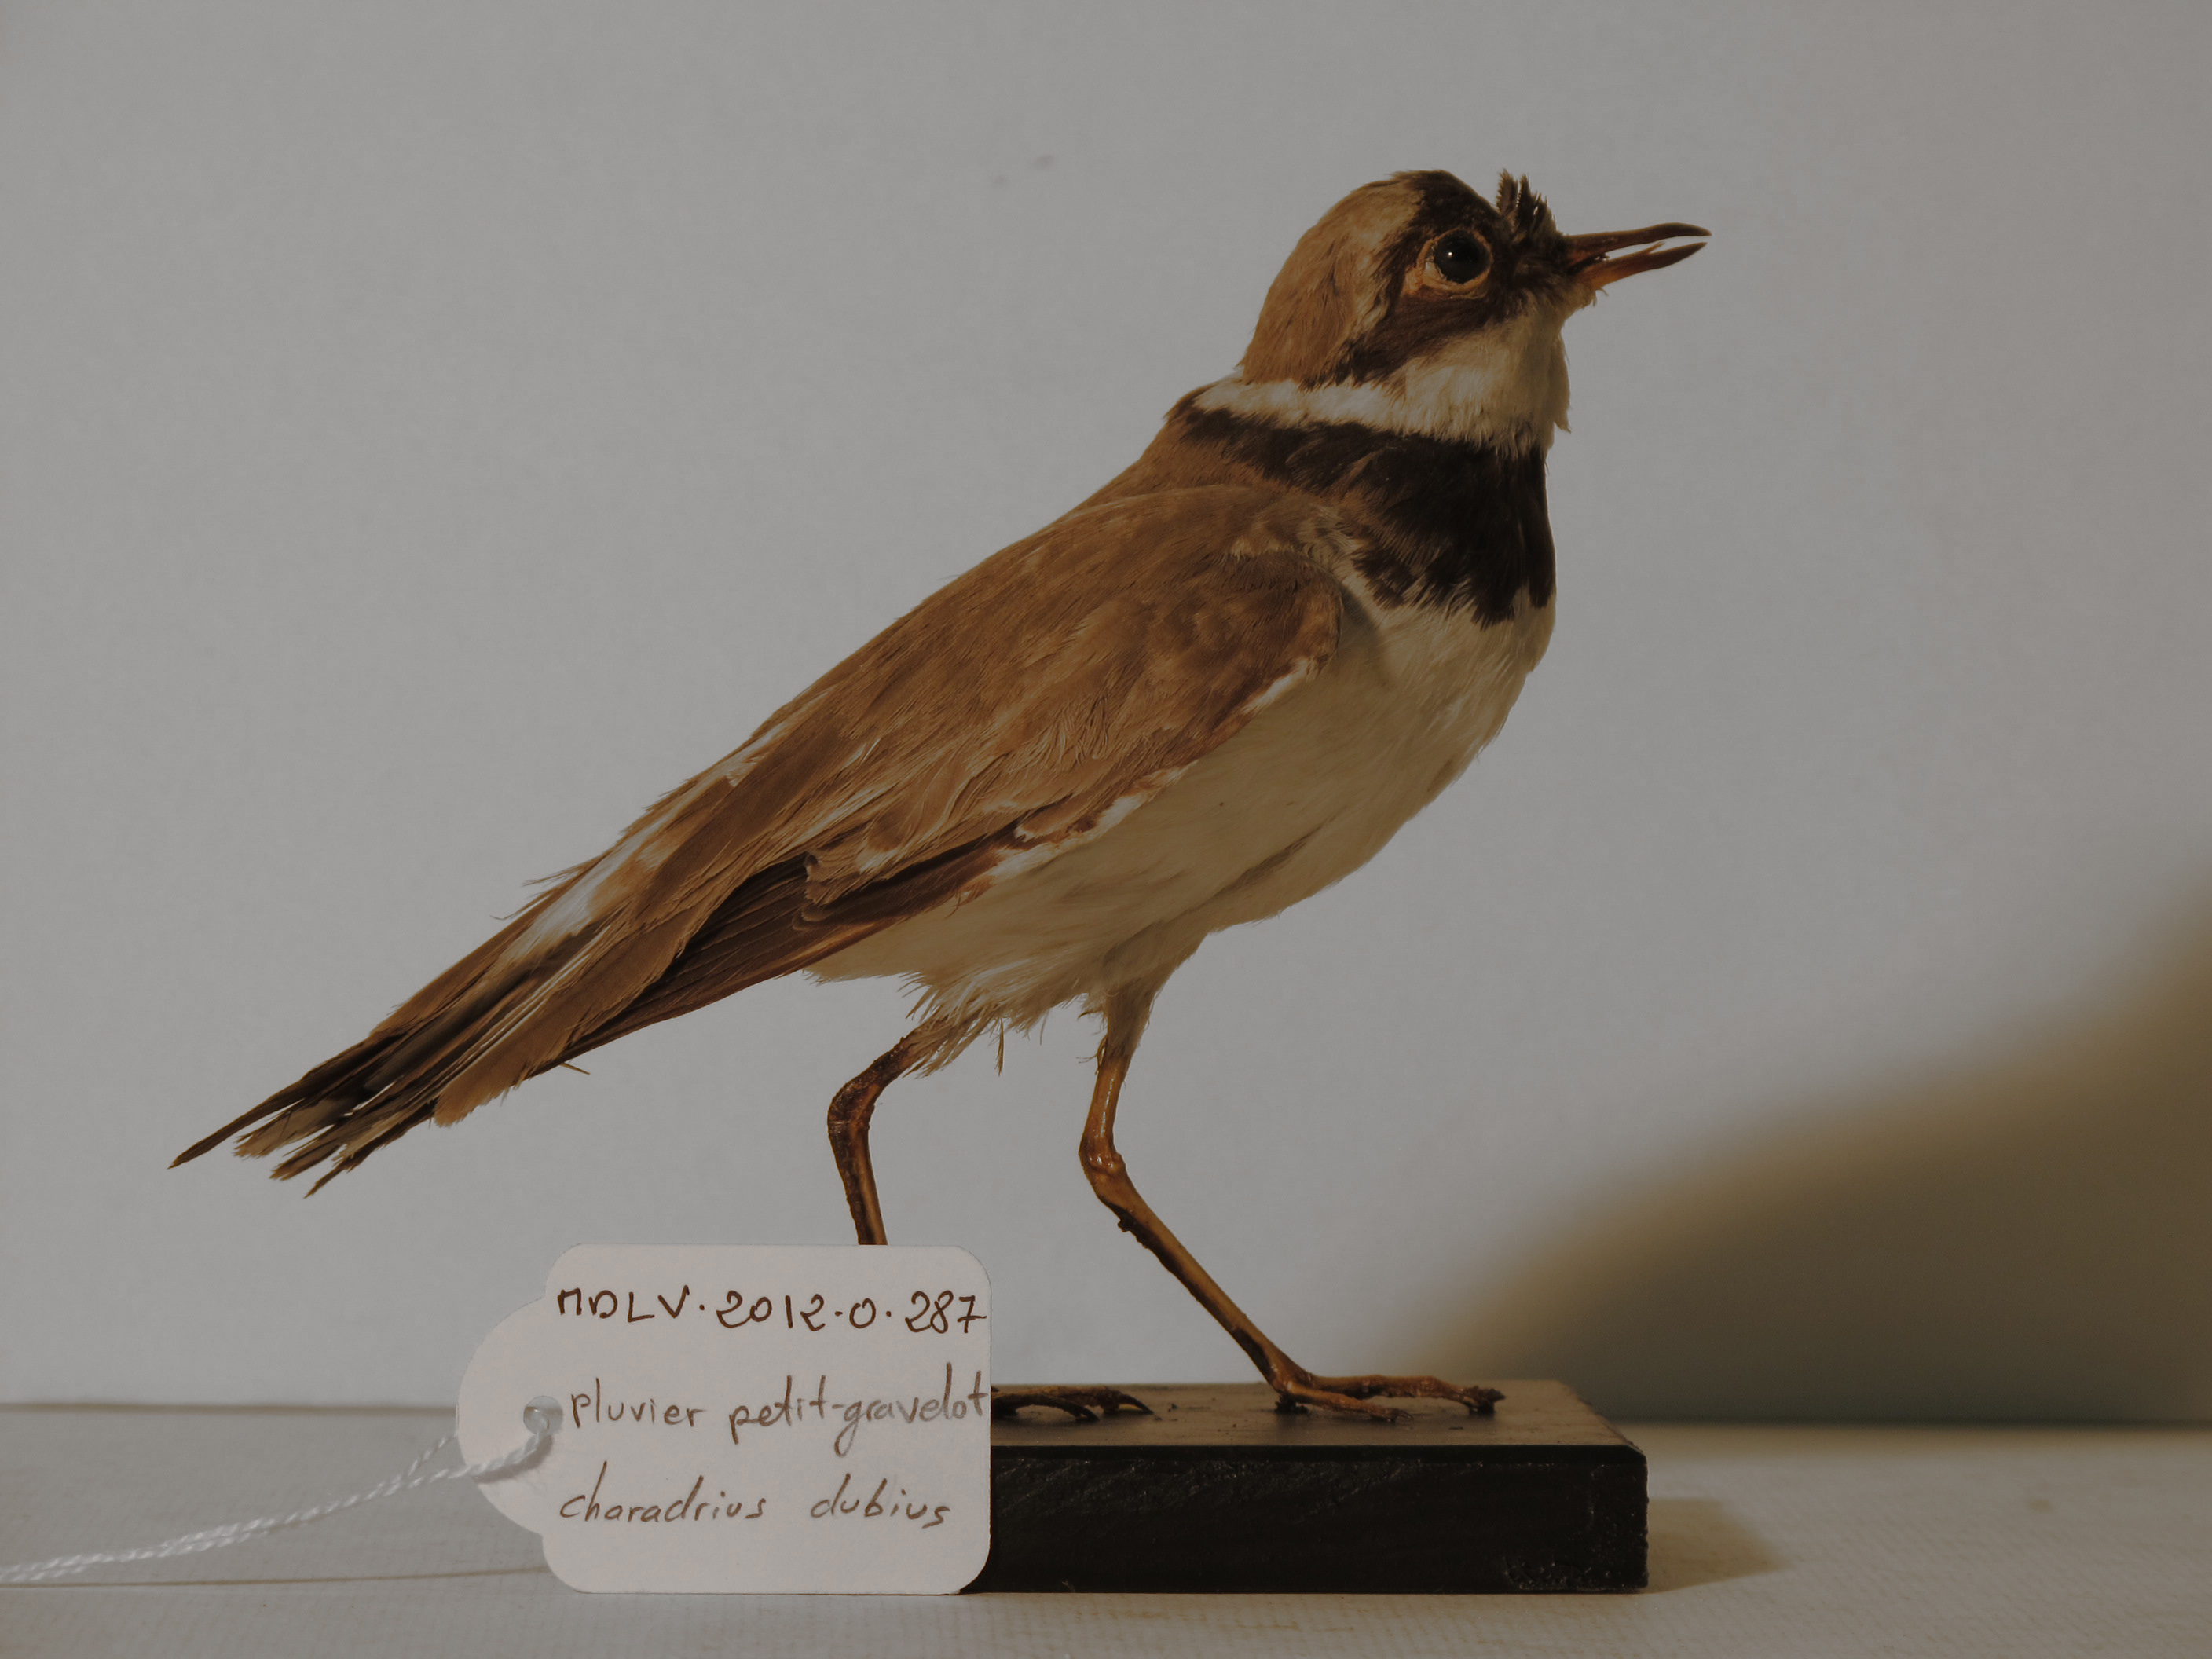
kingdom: Animalia
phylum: Chordata
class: Aves
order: Charadriiformes
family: Charadriidae
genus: Charadrius
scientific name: Charadrius dubius
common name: Little Ringed Plover
